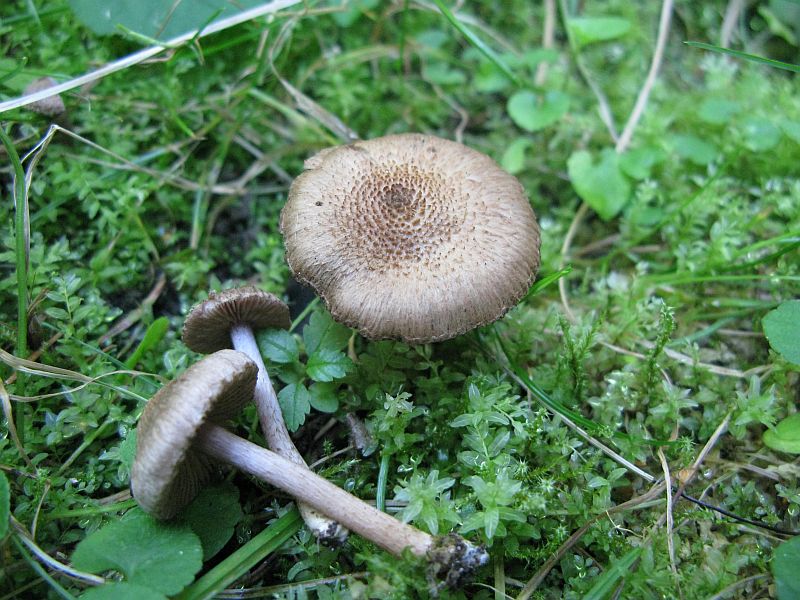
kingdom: Fungi
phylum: Basidiomycota
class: Agaricomycetes
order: Agaricales
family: Inocybaceae
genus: Inocybe
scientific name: Inocybe
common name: trævlhat
